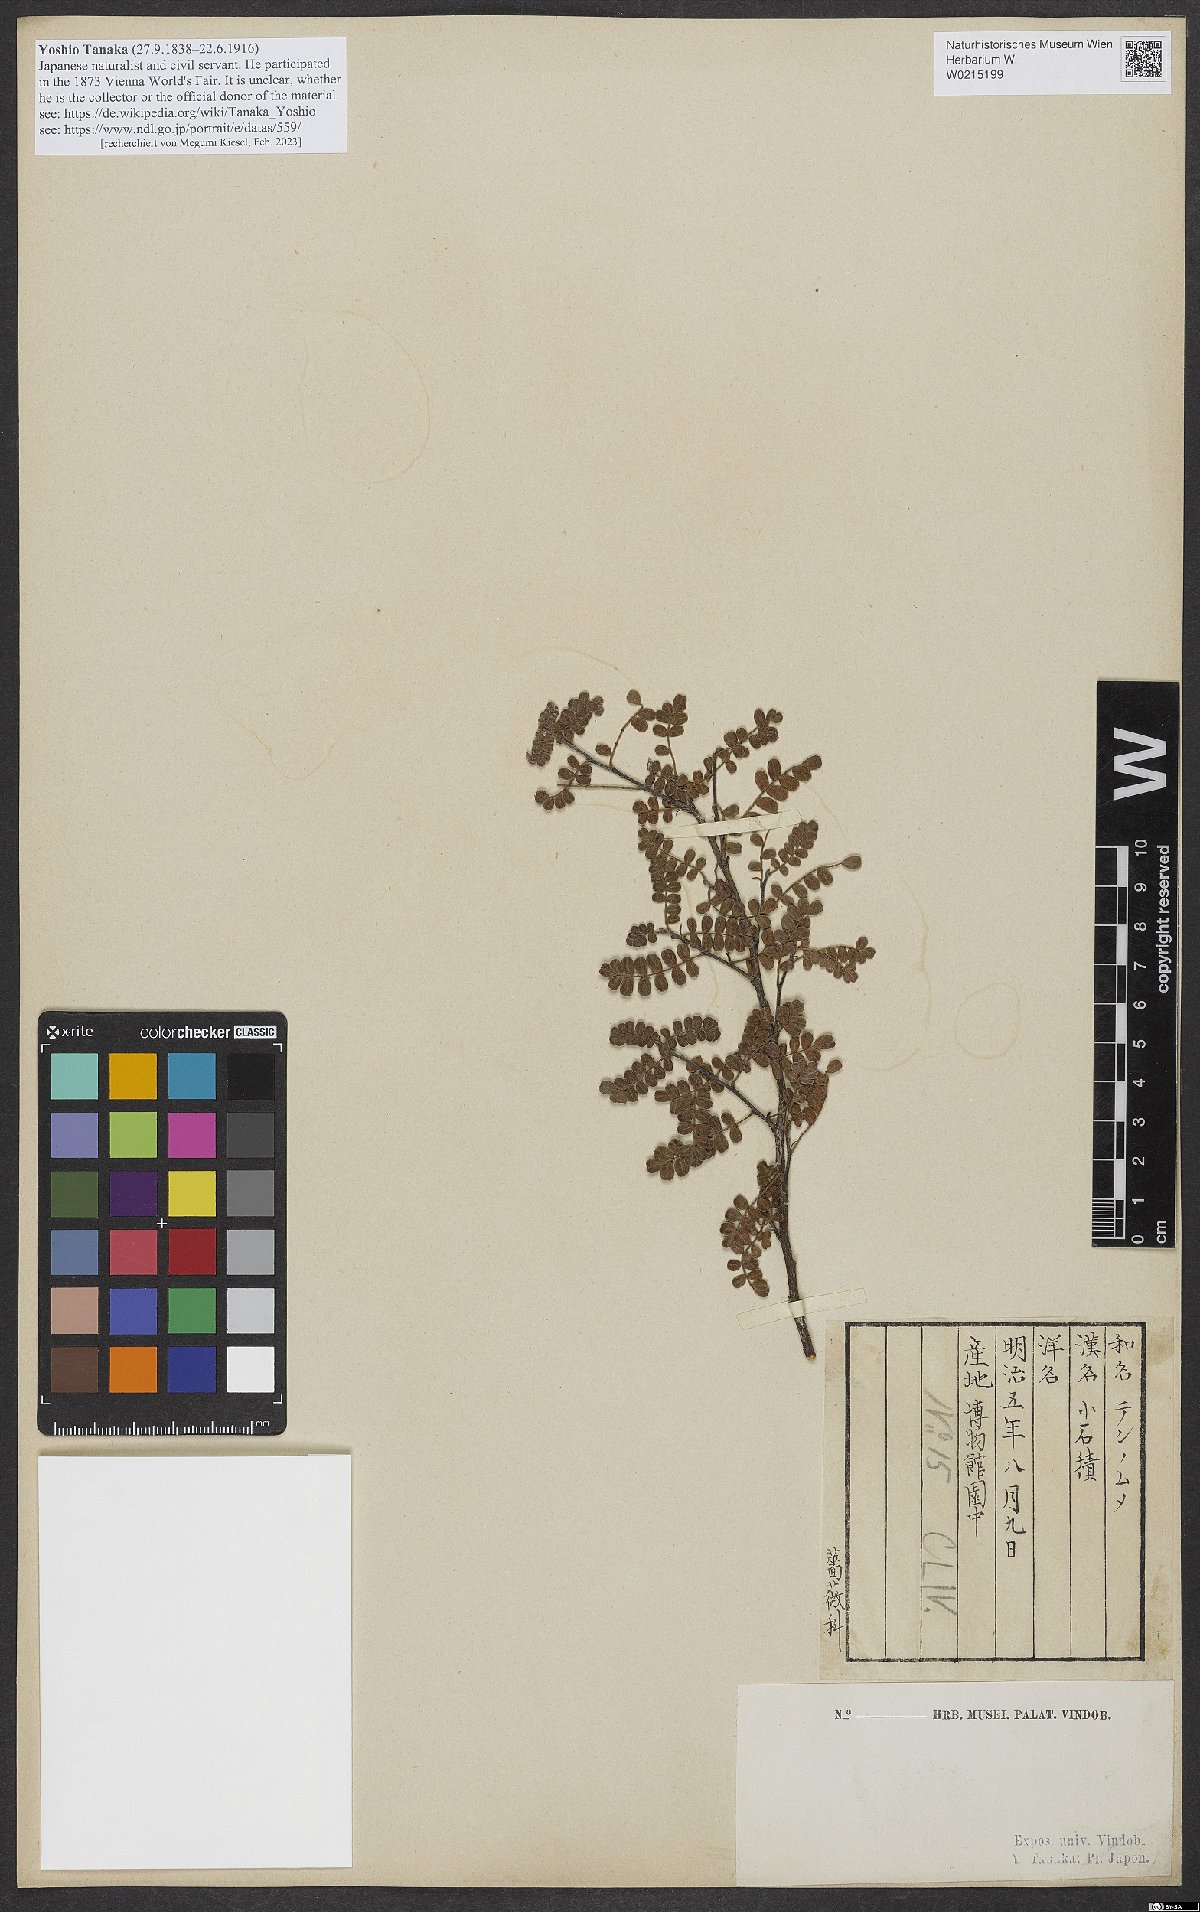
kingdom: Plantae
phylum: Tracheophyta
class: Magnoliopsida
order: Rosales
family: Rosaceae
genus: Osteomeles
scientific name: Osteomeles anthyllidifolia
